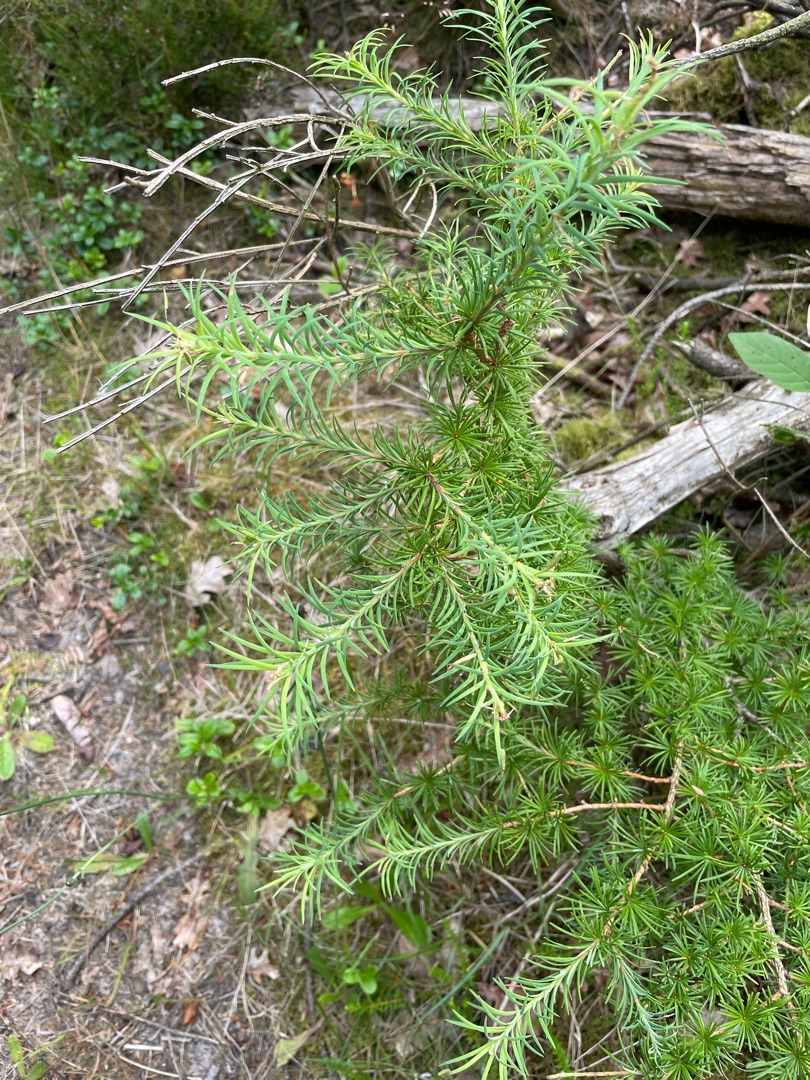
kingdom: Plantae
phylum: Tracheophyta
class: Pinopsida
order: Pinales
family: Pinaceae
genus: Larix
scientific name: Larix
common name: Lærkeslægten
